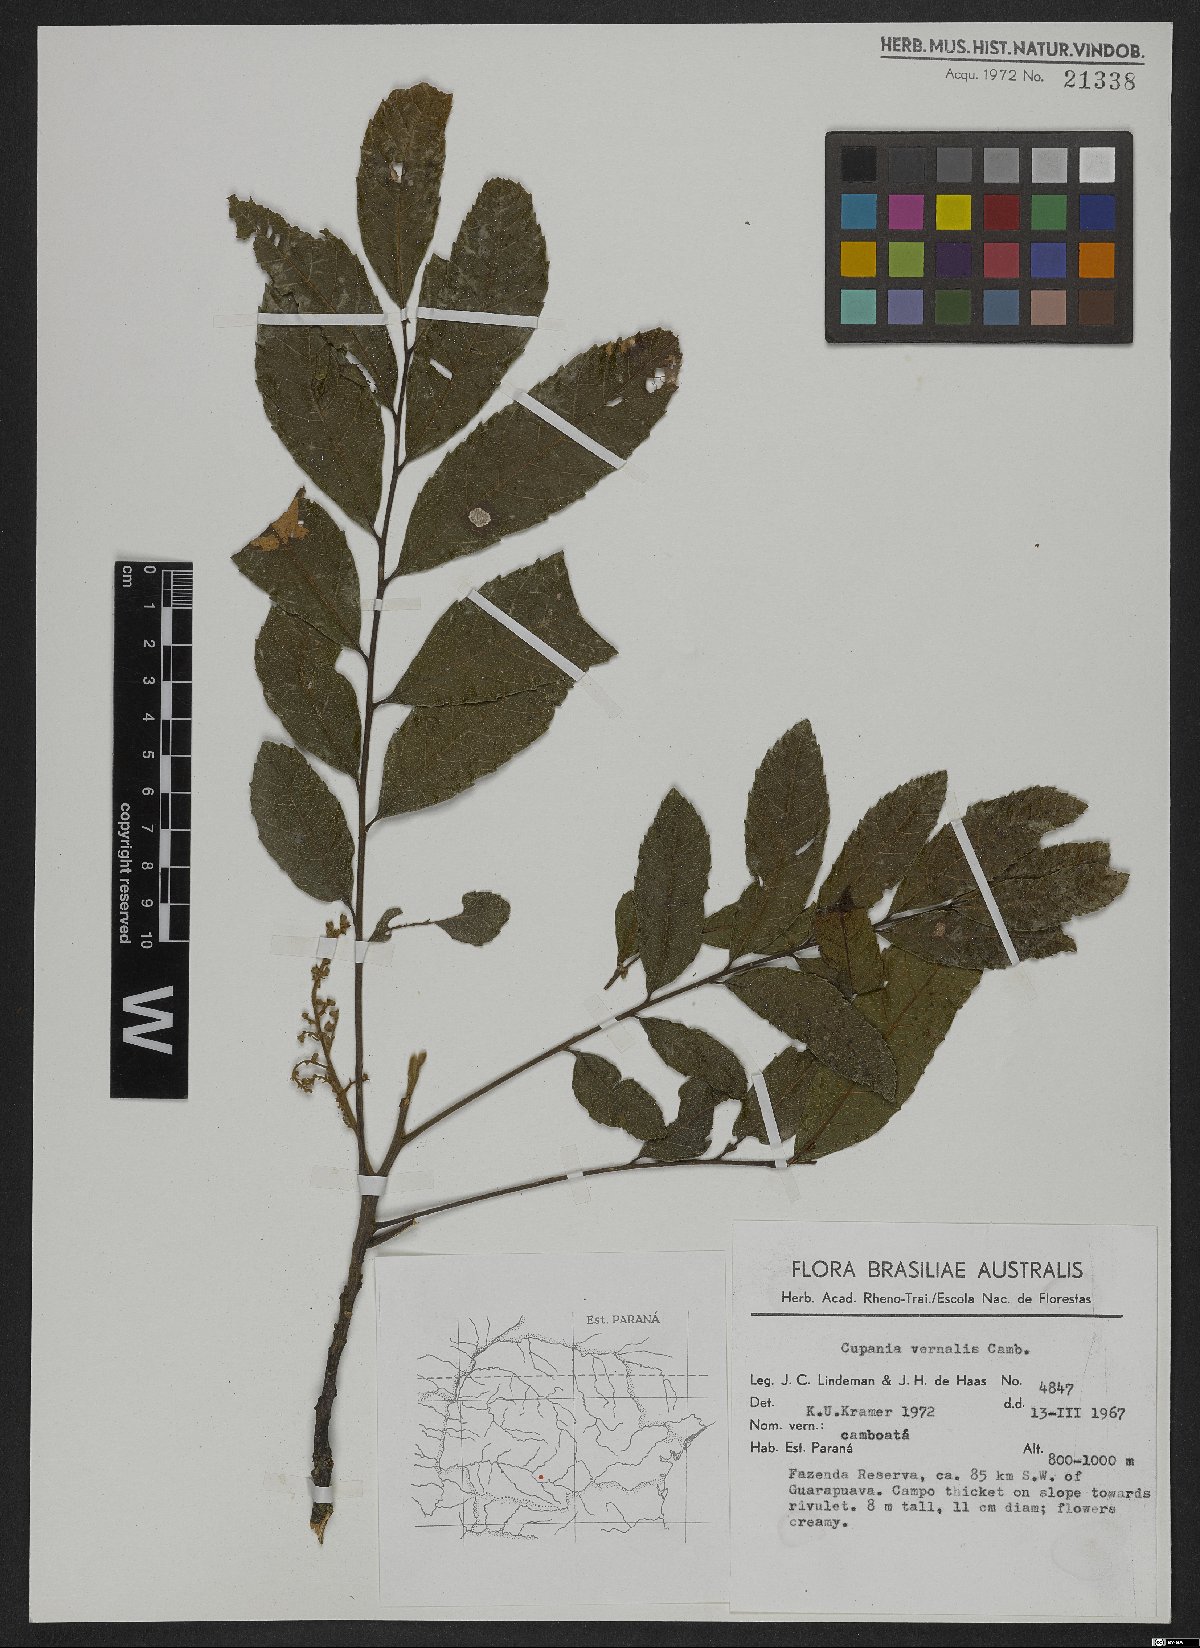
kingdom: Plantae
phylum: Tracheophyta
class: Magnoliopsida
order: Sapindales
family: Sapindaceae
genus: Cupania
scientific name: Cupania vernalis
